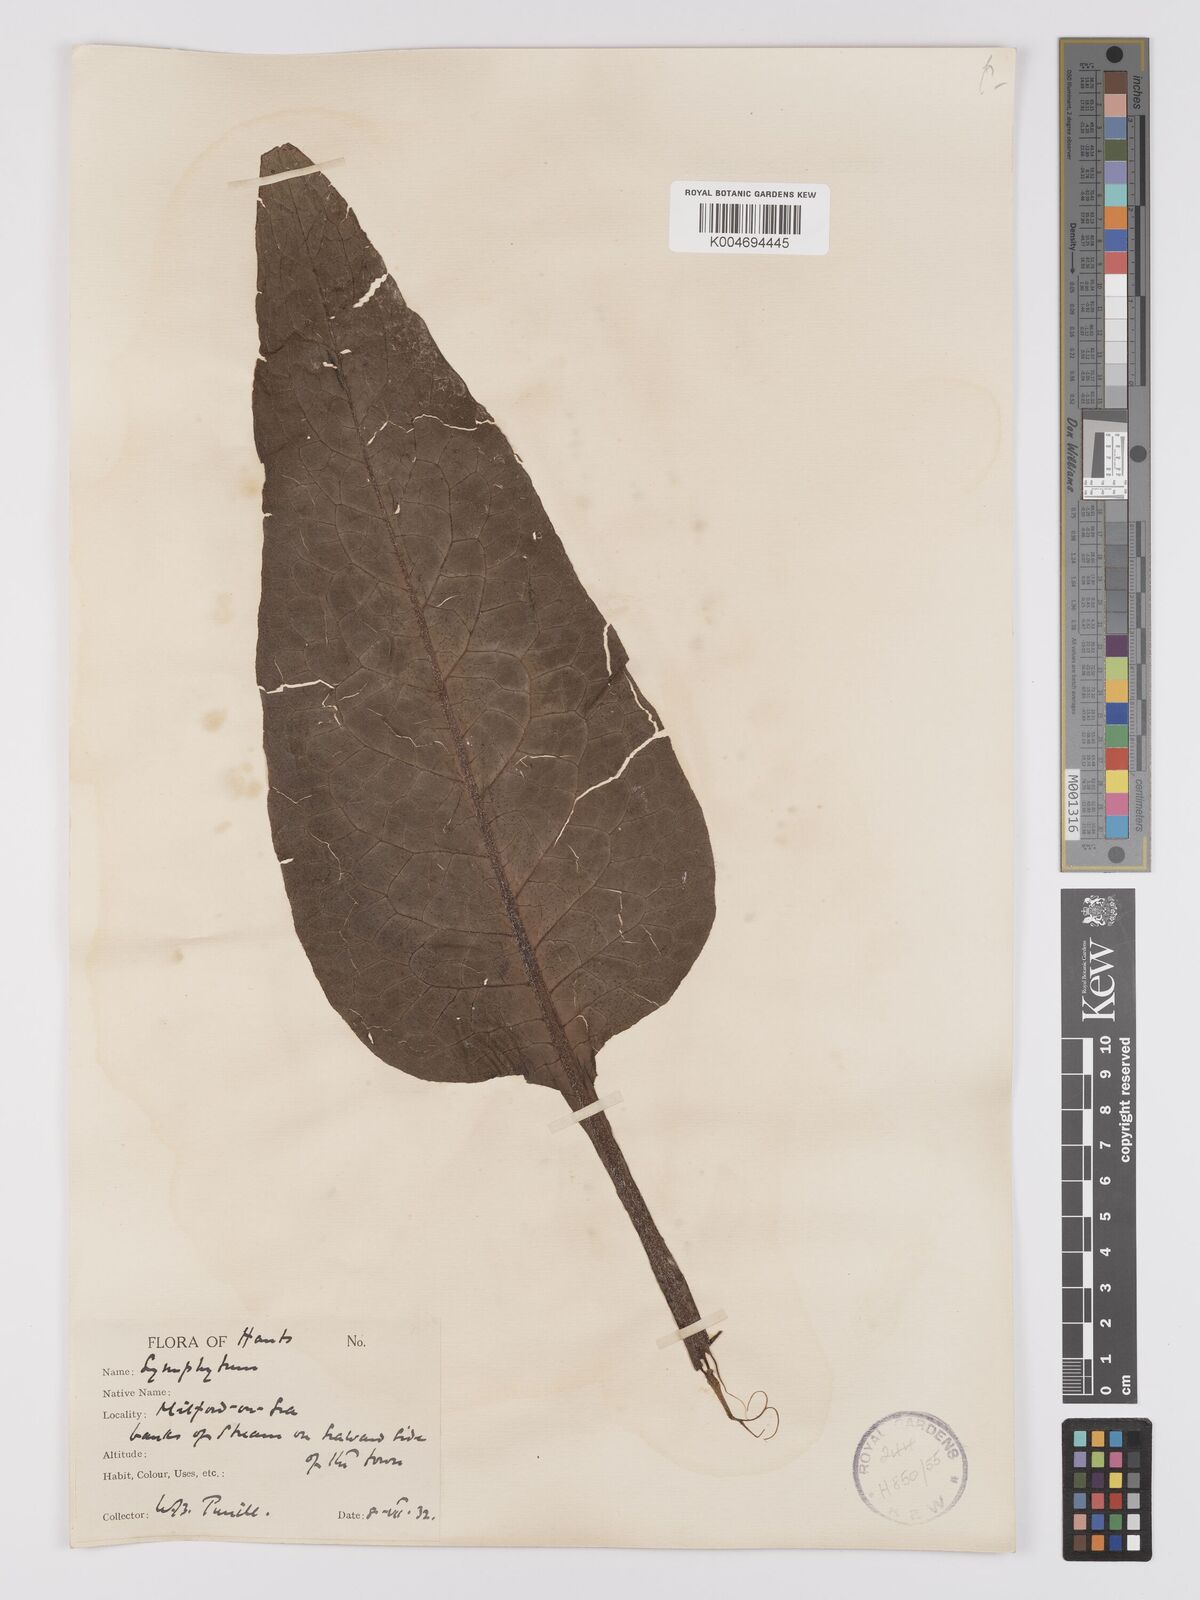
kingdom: Plantae
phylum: Tracheophyta
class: Magnoliopsida
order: Boraginales
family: Boraginaceae
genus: Symphytum
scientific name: Symphytum officinale
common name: Common comfrey
